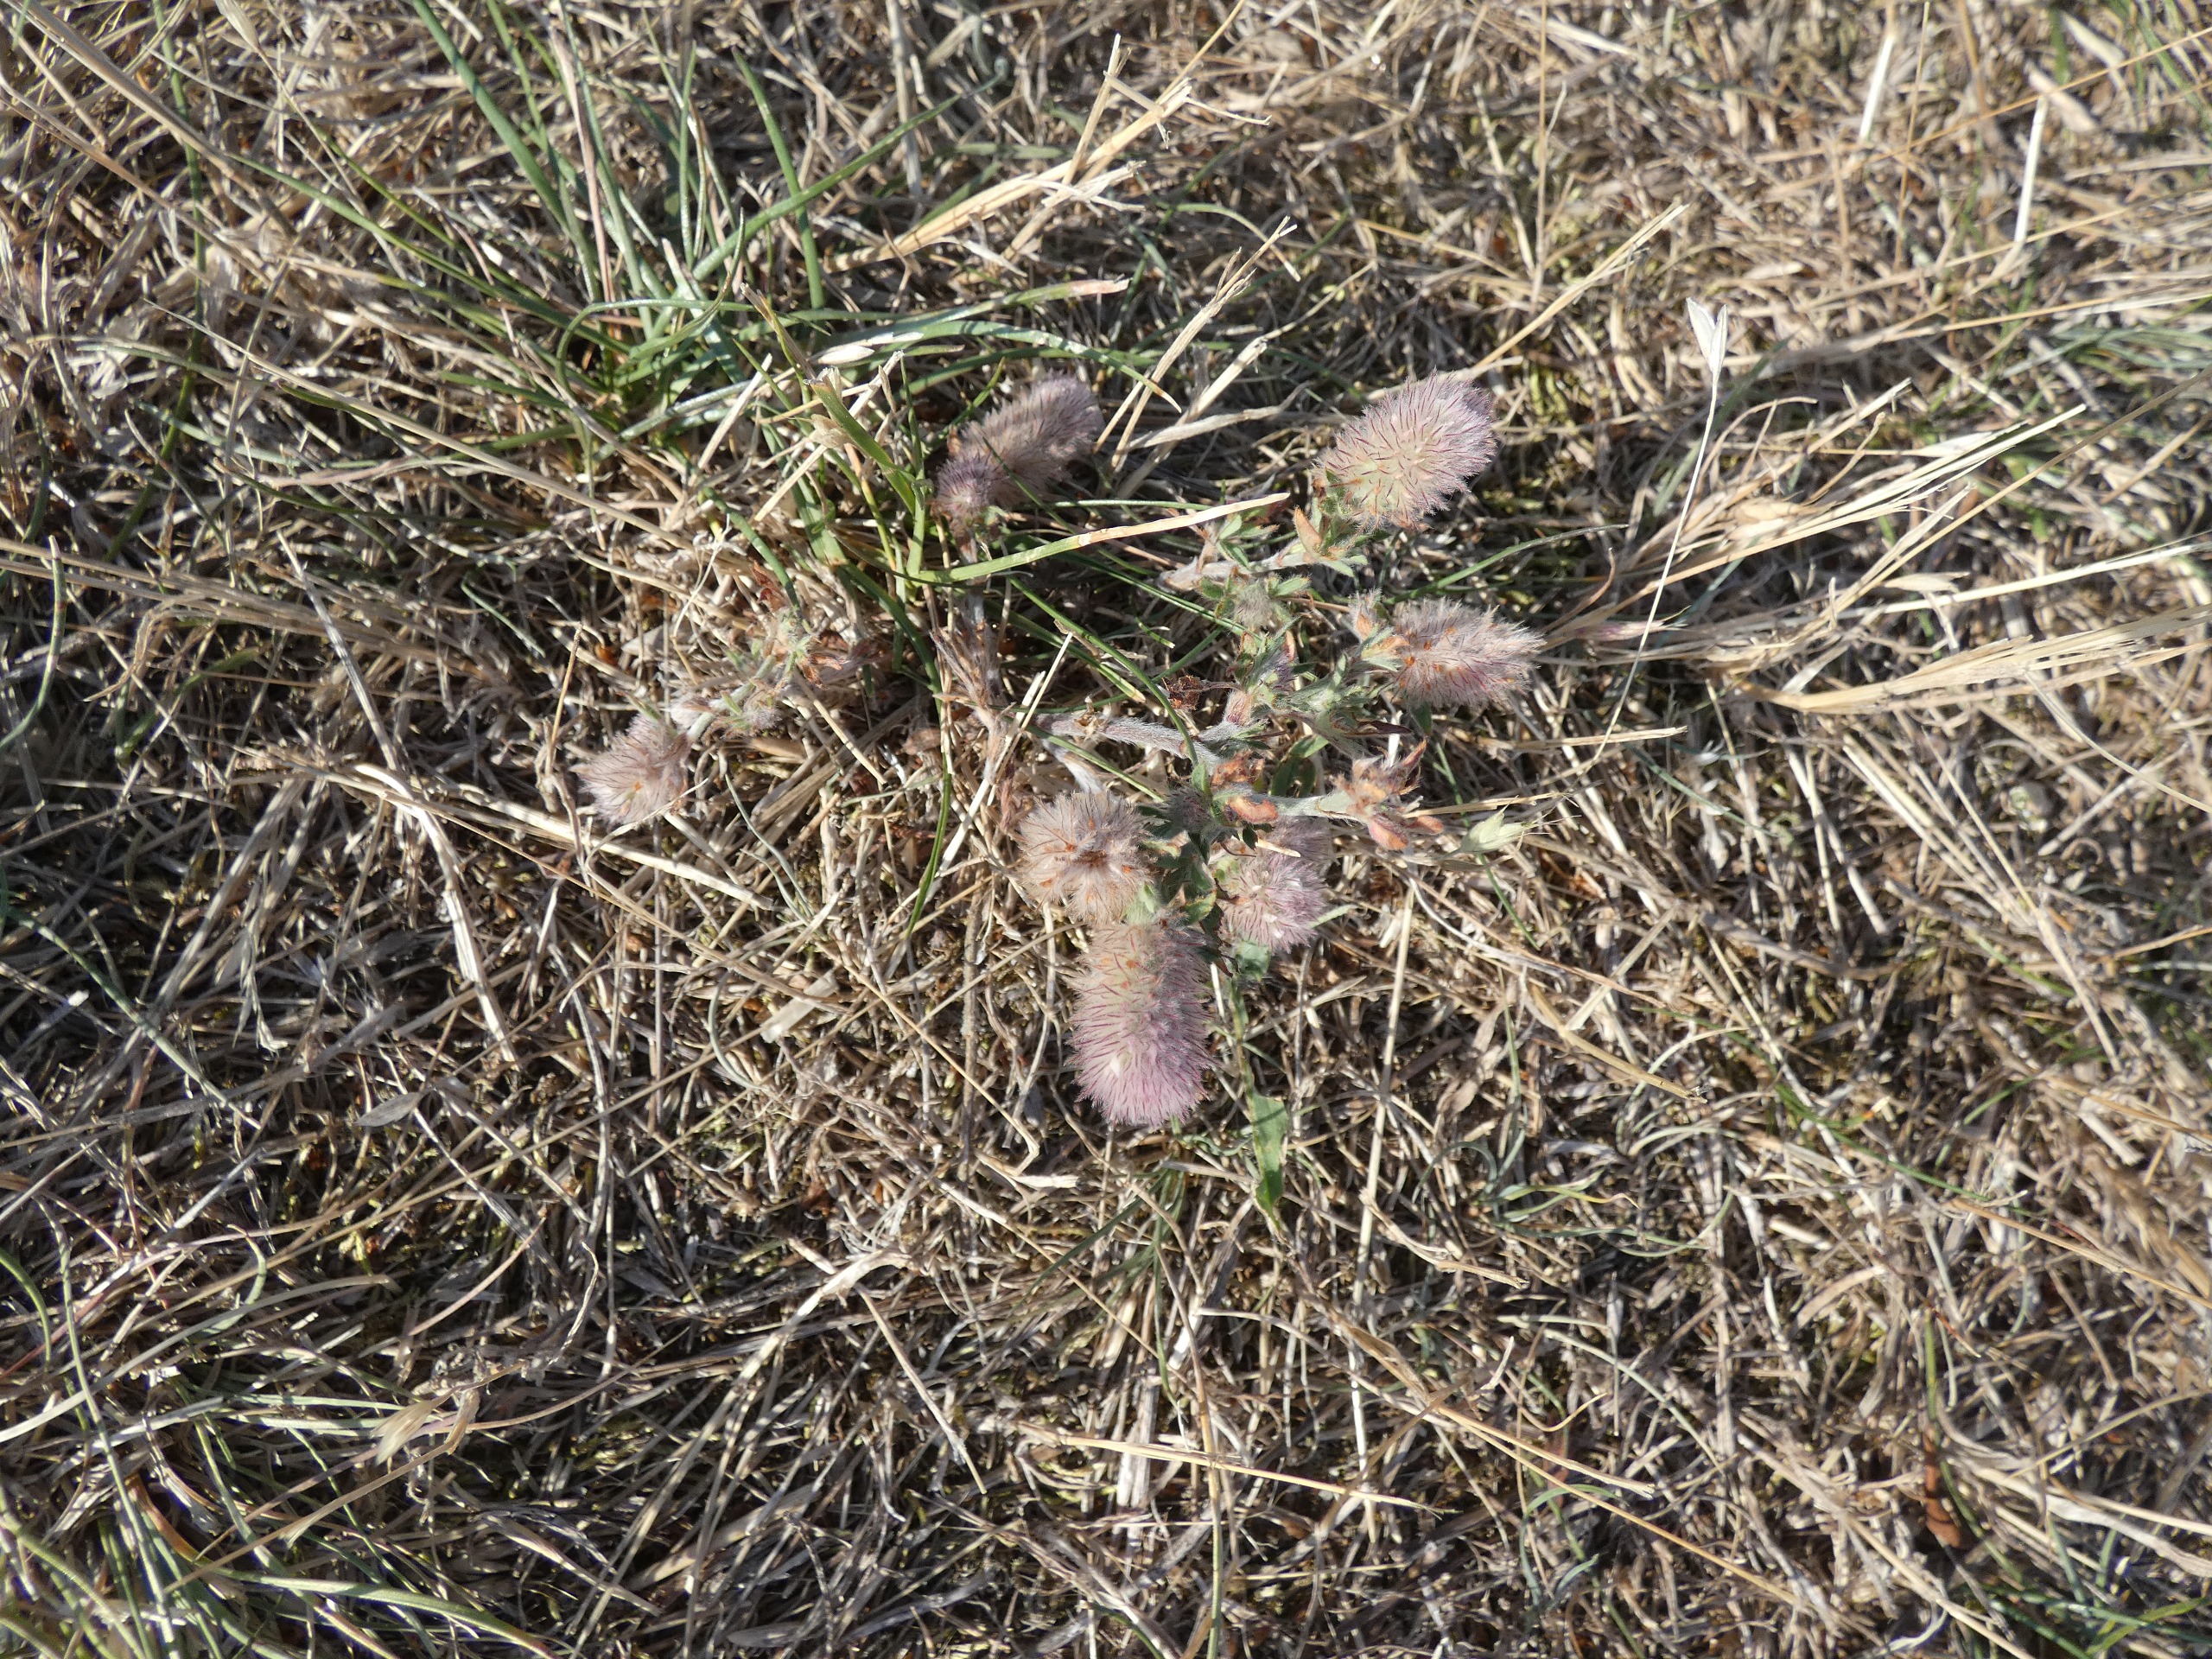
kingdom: Plantae
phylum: Tracheophyta
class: Magnoliopsida
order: Fabales
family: Fabaceae
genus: Trifolium
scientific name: Trifolium arvense
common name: Hare-kløver
